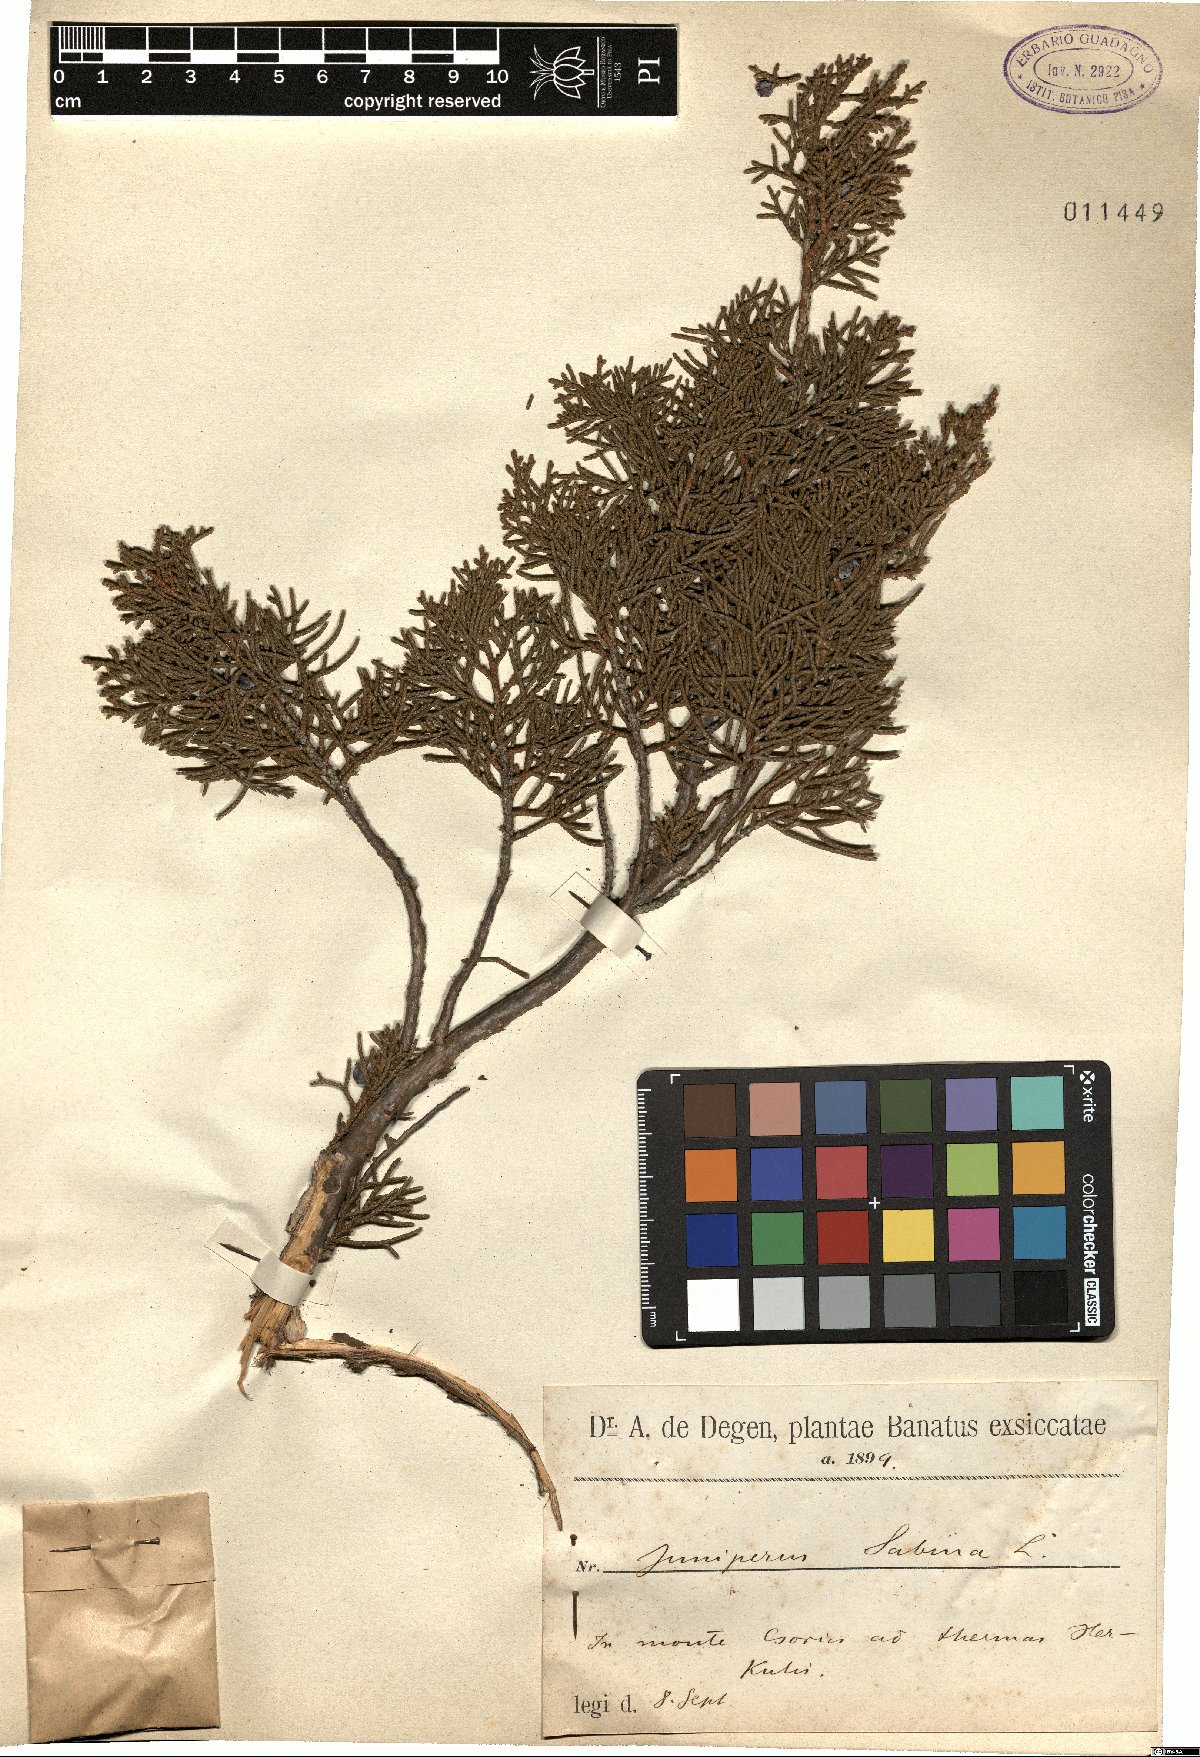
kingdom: Plantae
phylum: Tracheophyta
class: Pinopsida
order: Pinales
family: Cupressaceae
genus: Juniperus
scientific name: Juniperus sabina
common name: Savin
